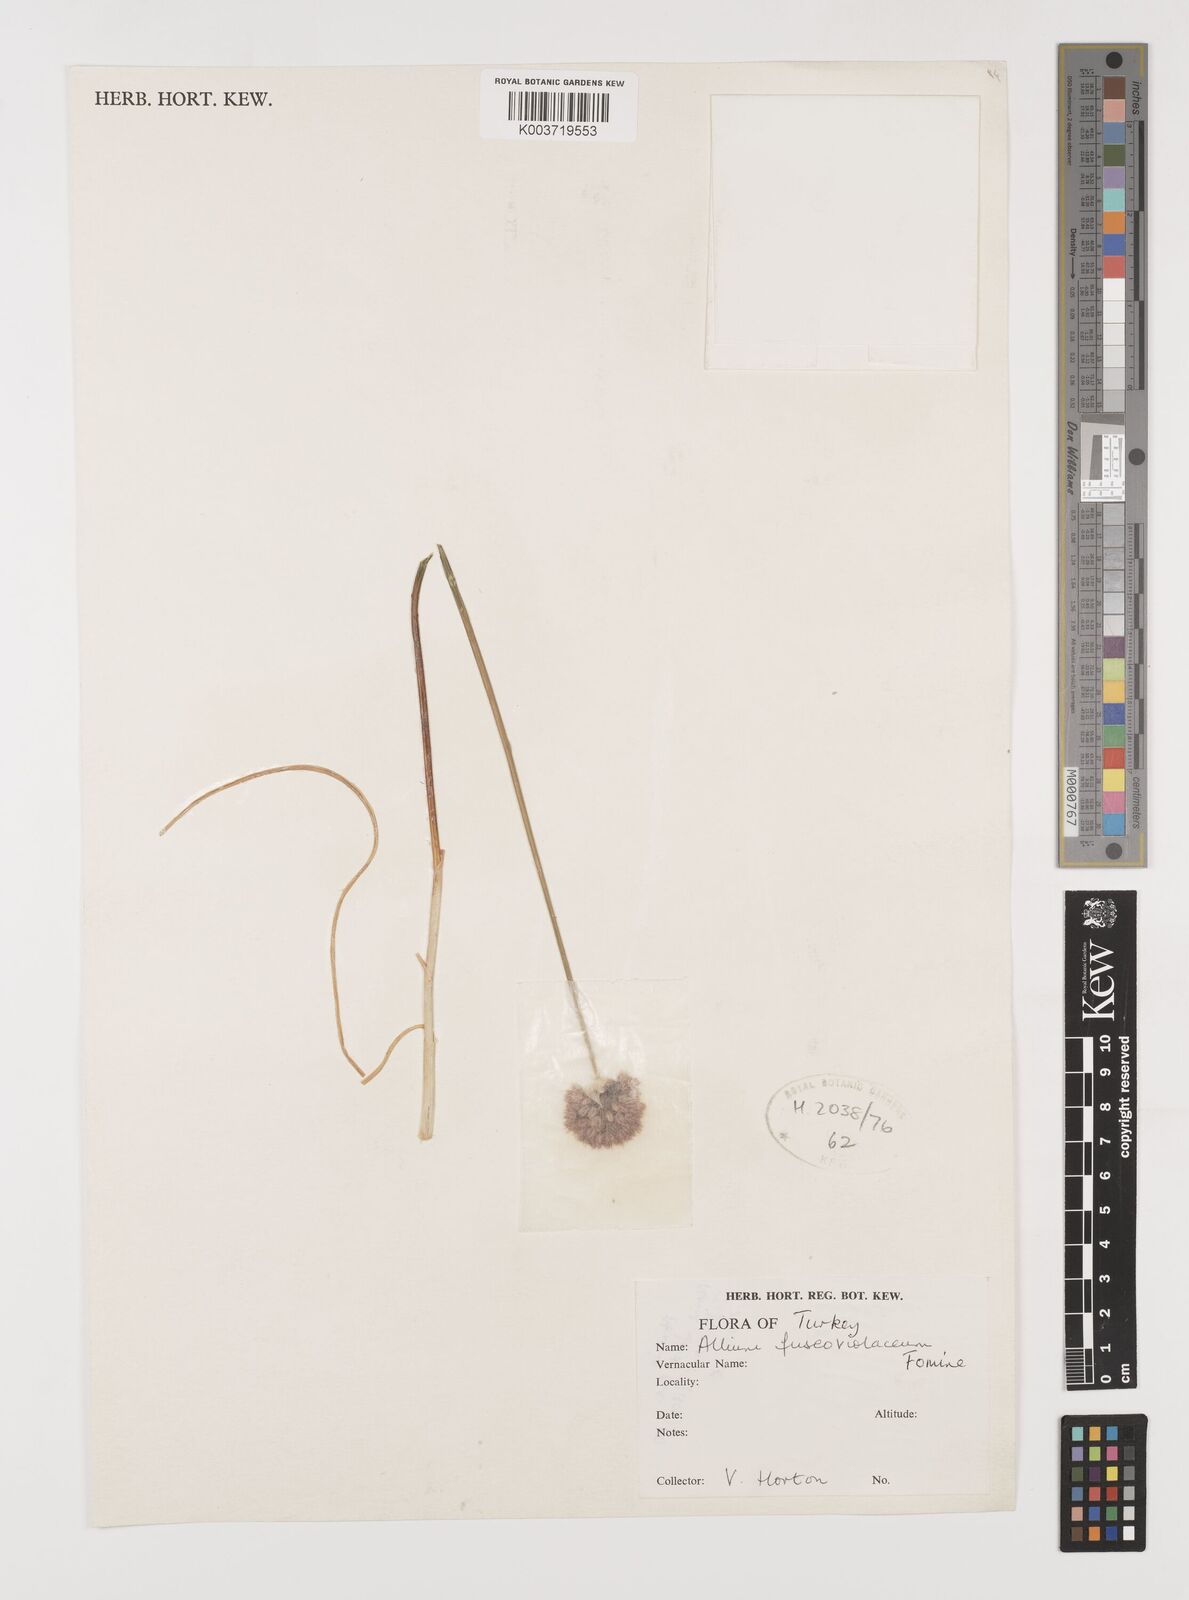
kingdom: Plantae
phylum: Tracheophyta
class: Liliopsida
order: Asparagales
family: Amaryllidaceae
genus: Allium
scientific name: Allium fuscoviolaceum
